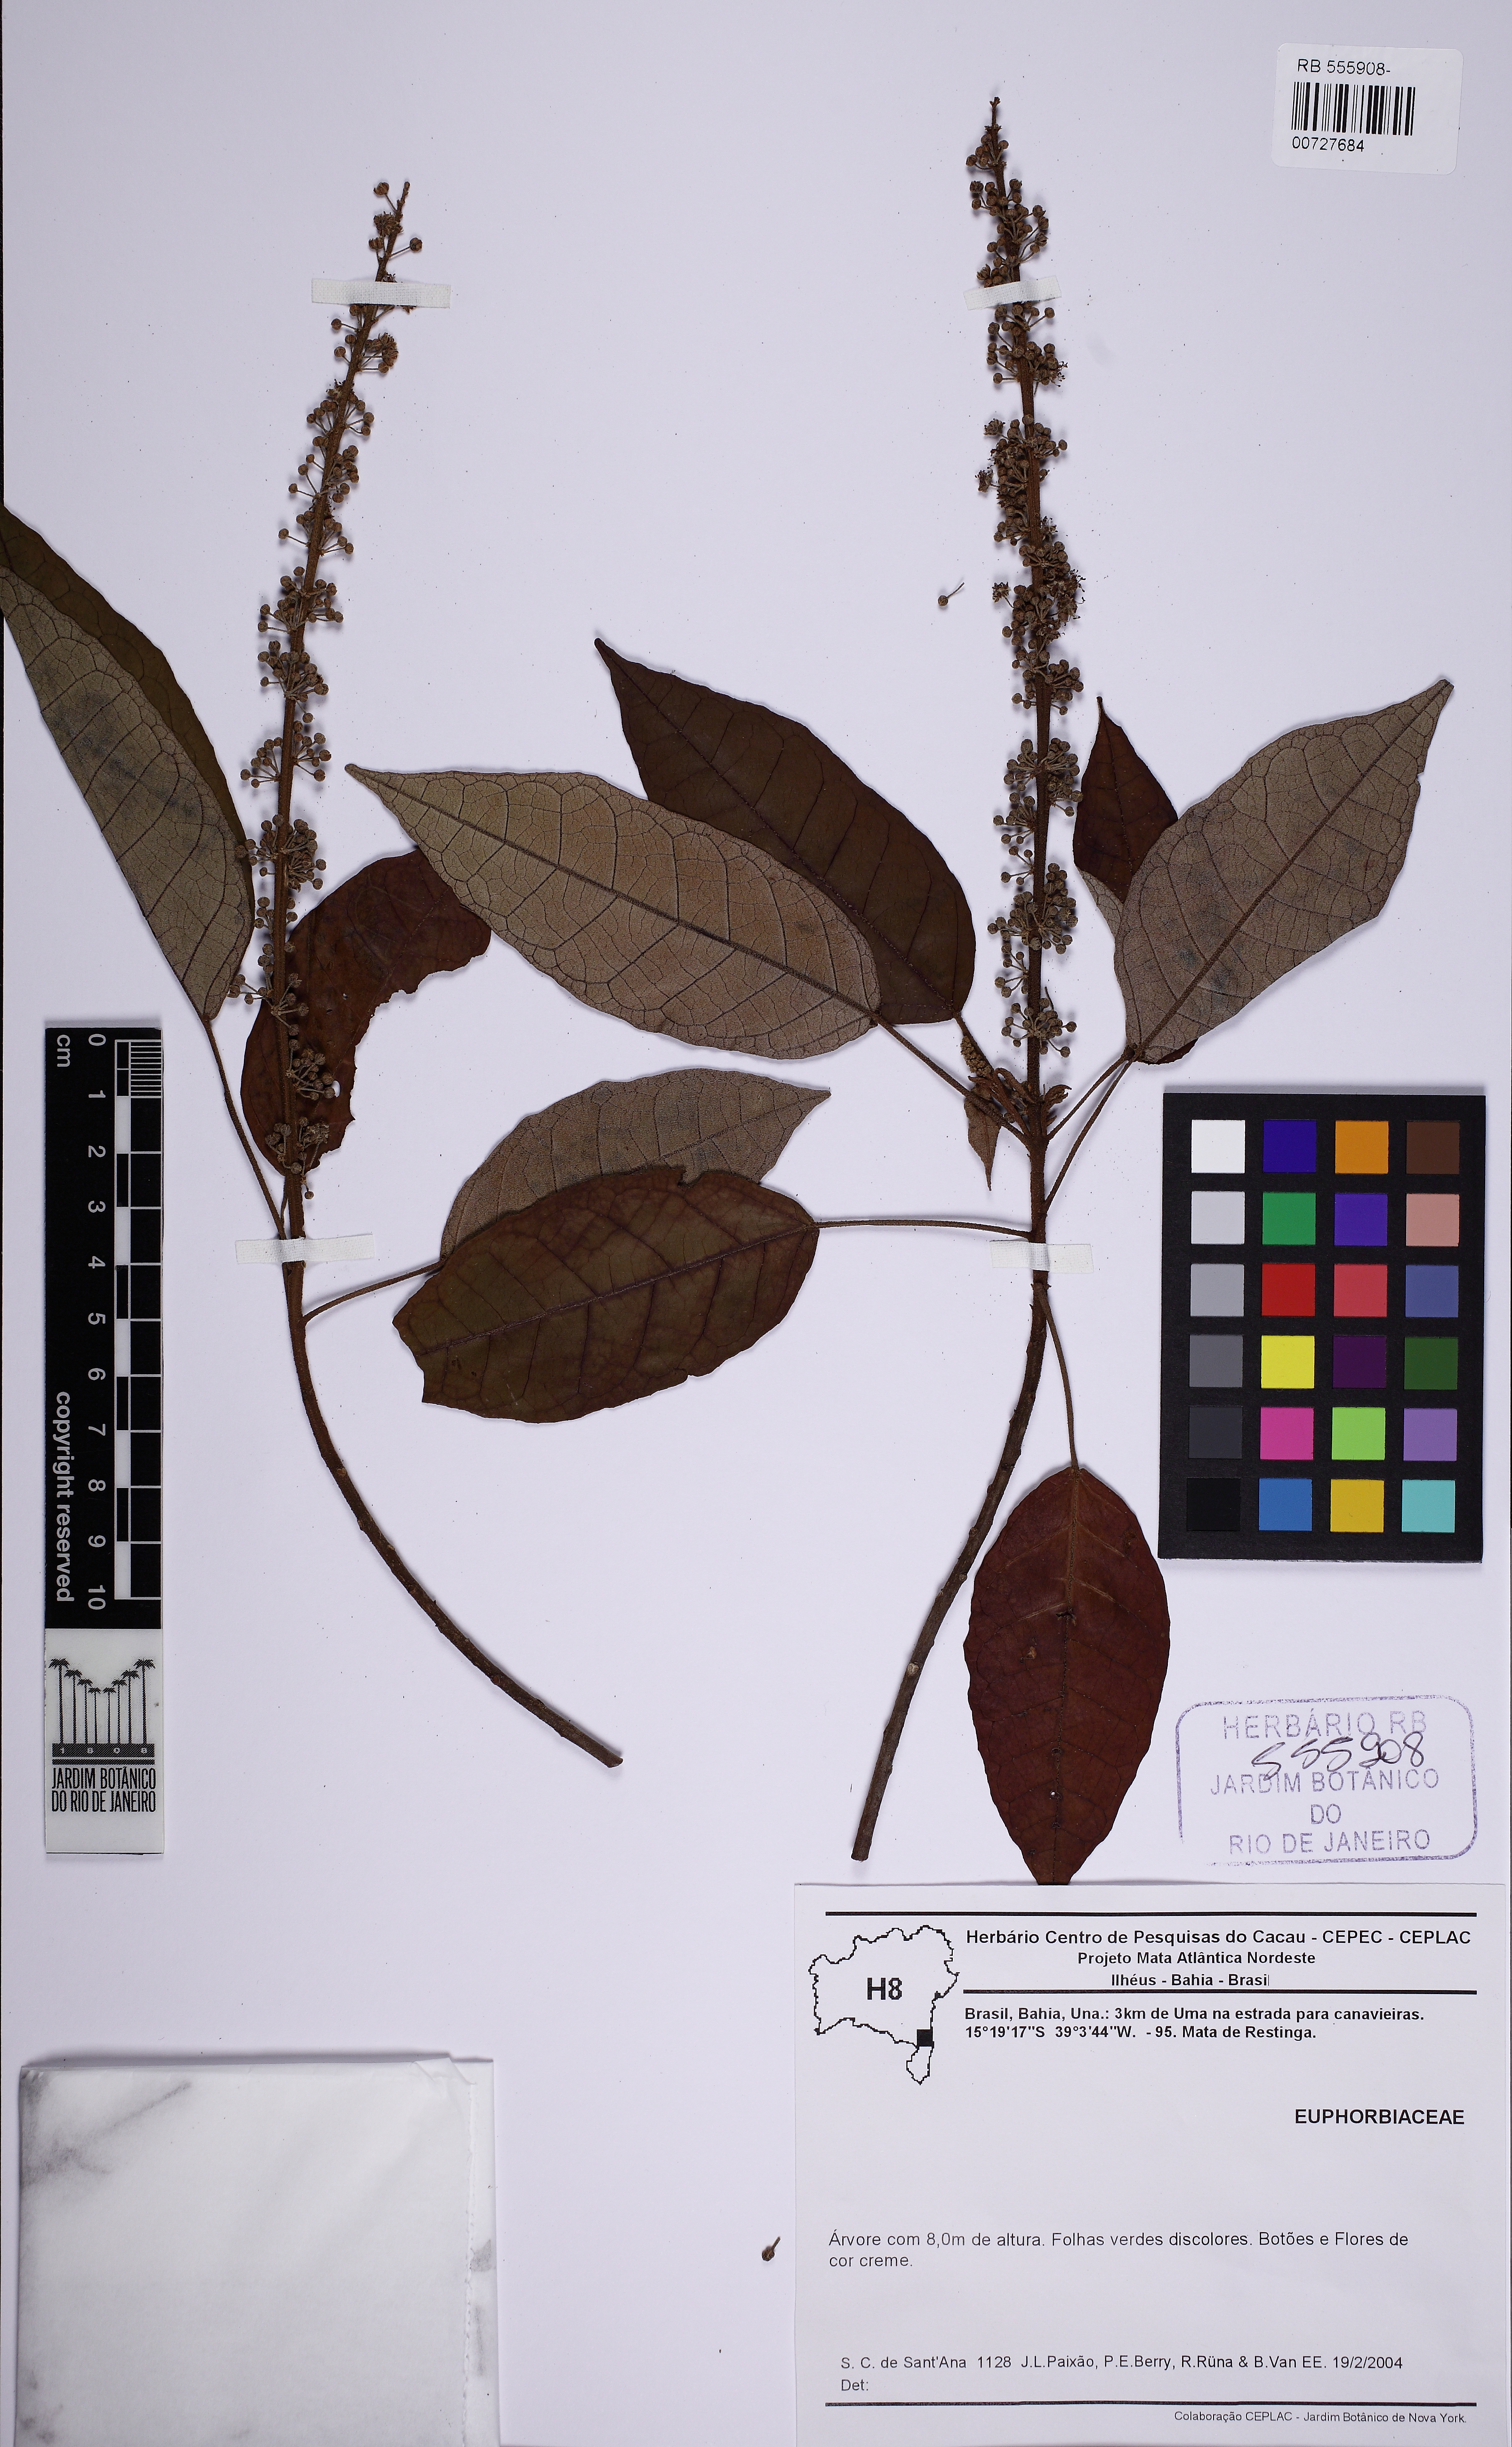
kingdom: Plantae
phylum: Tracheophyta
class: Magnoliopsida
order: Malpighiales
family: Euphorbiaceae
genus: Croton
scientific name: Croton macrobothrys
